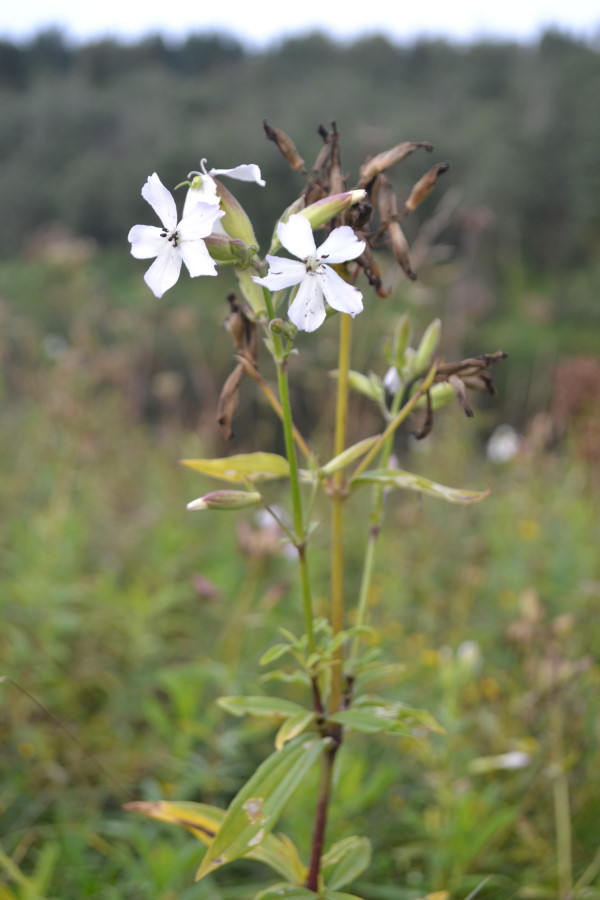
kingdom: Plantae
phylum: Tracheophyta
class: Magnoliopsida
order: Caryophyllales
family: Caryophyllaceae
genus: Saponaria
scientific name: Saponaria officinalis
